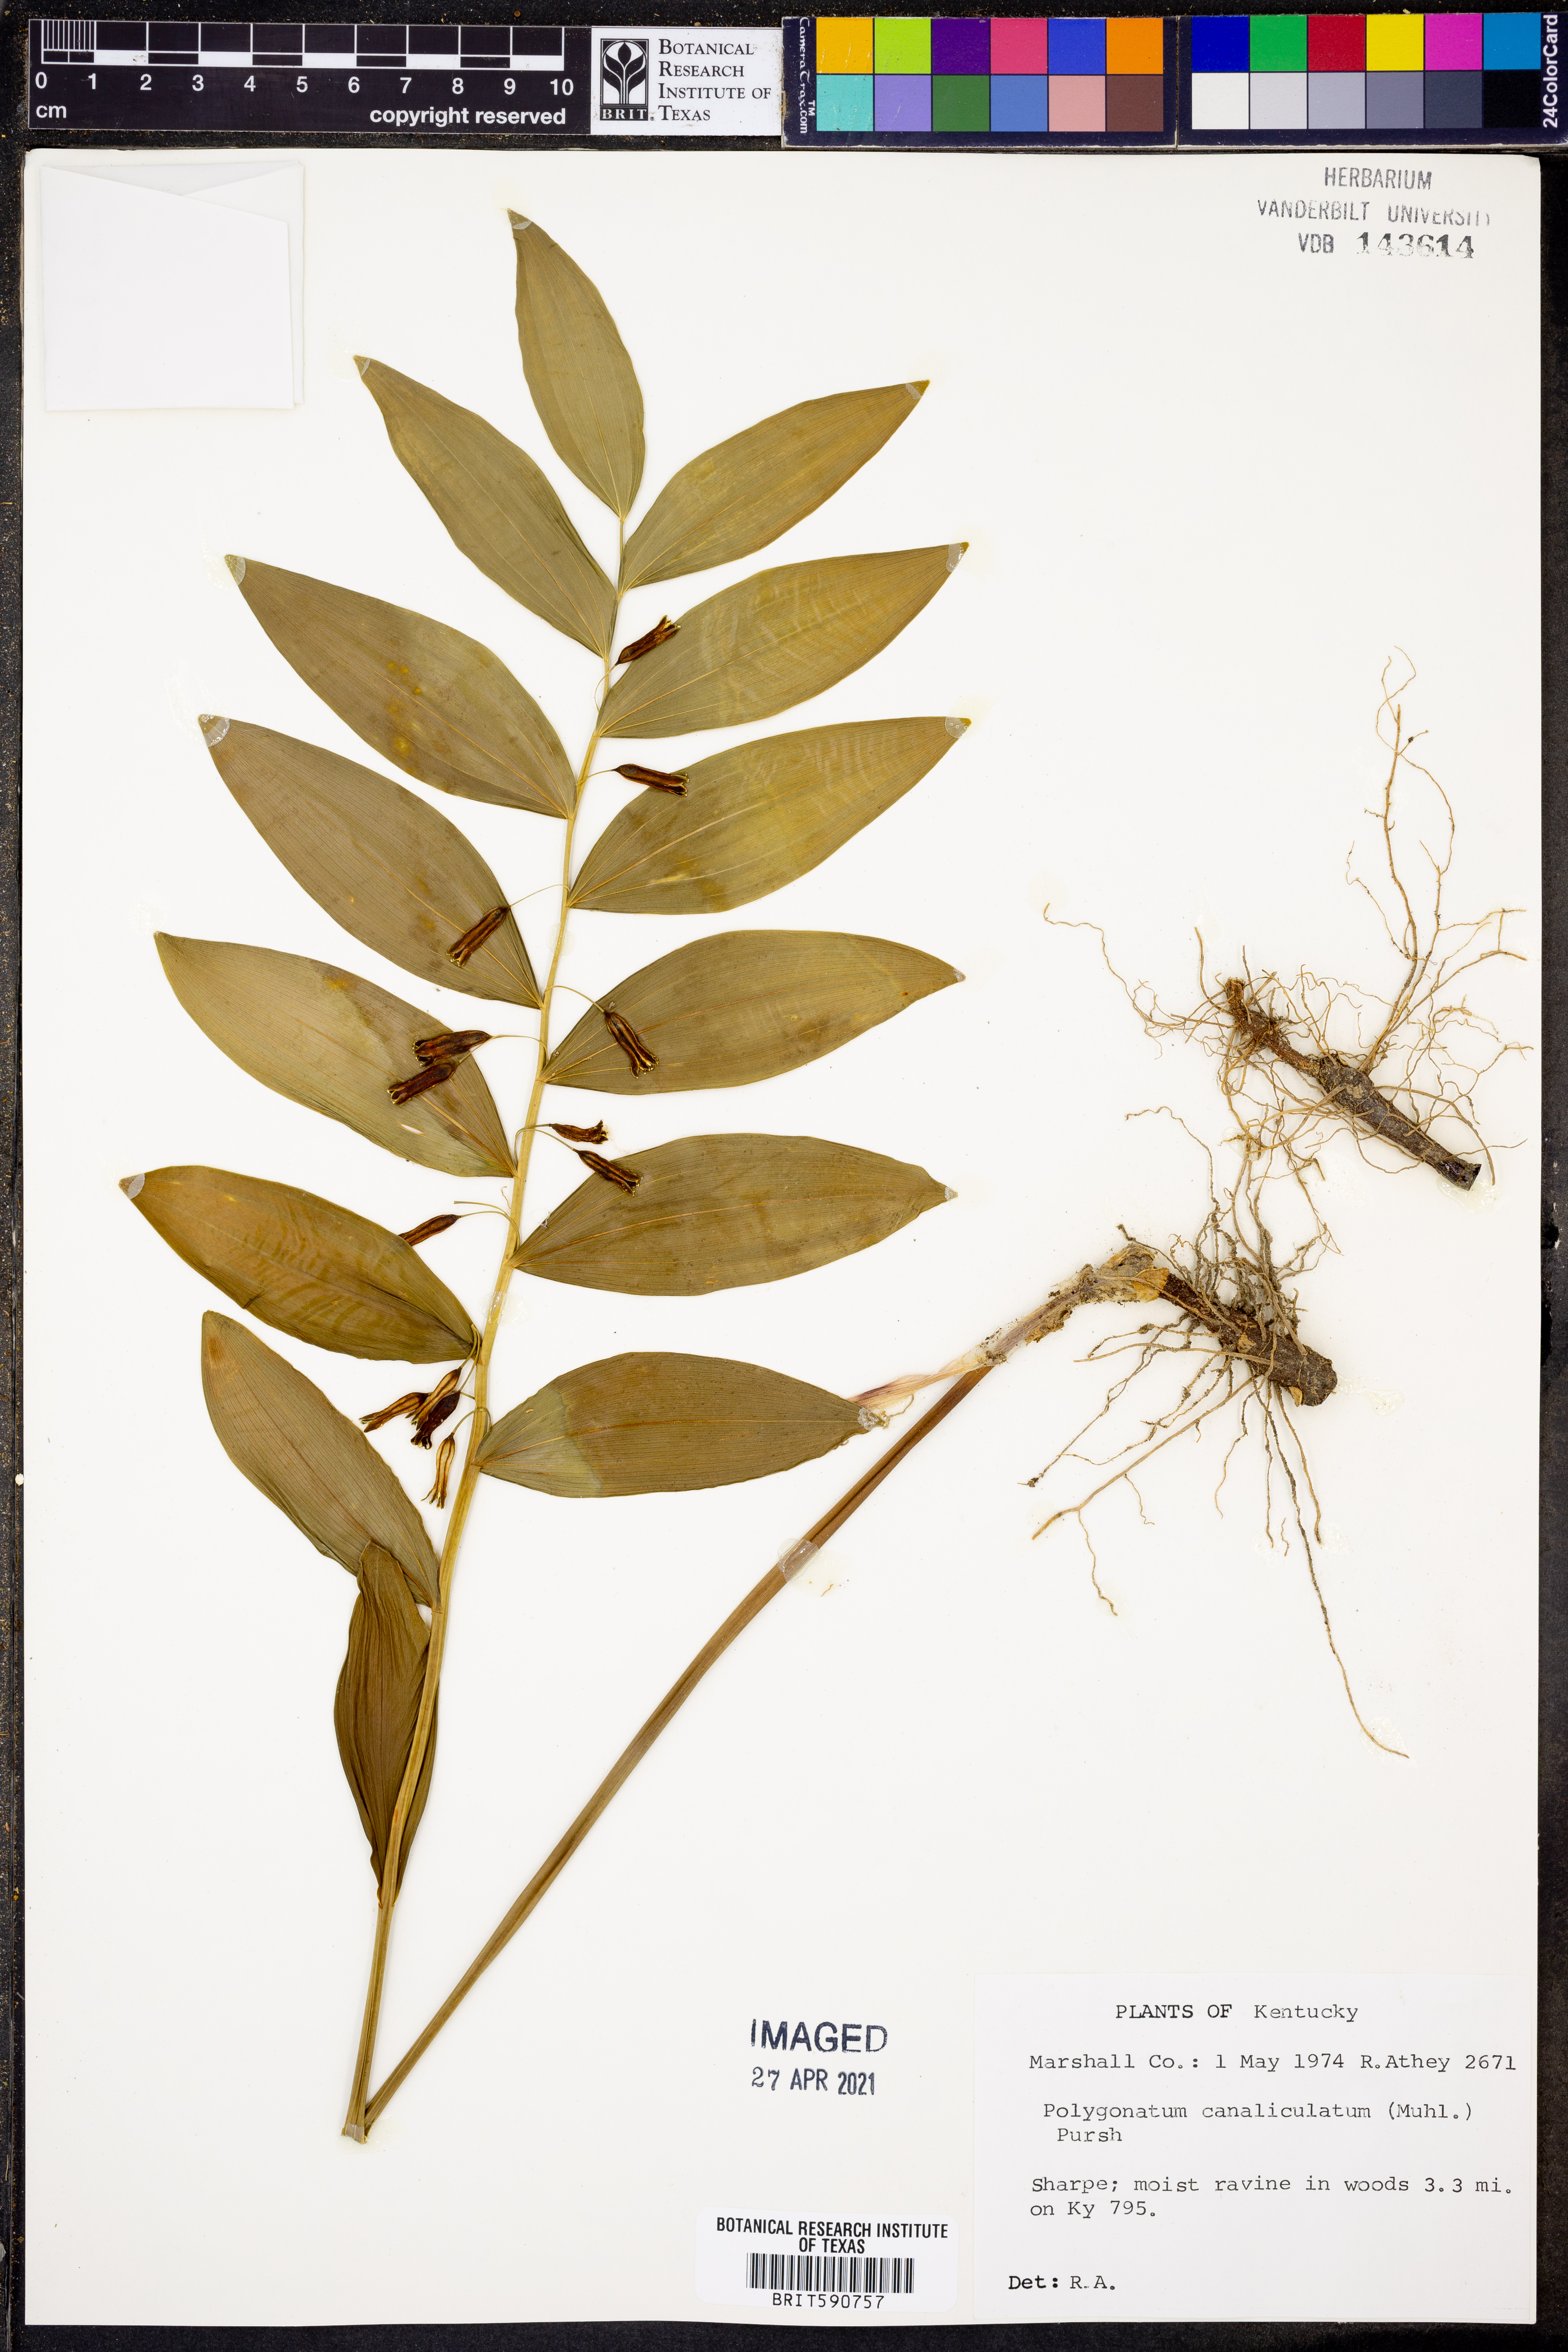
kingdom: Plantae
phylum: Tracheophyta
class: Liliopsida
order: Asparagales
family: Asparagaceae
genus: Polygonatum
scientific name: Polygonatum biflorum
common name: American solomon's-seal
